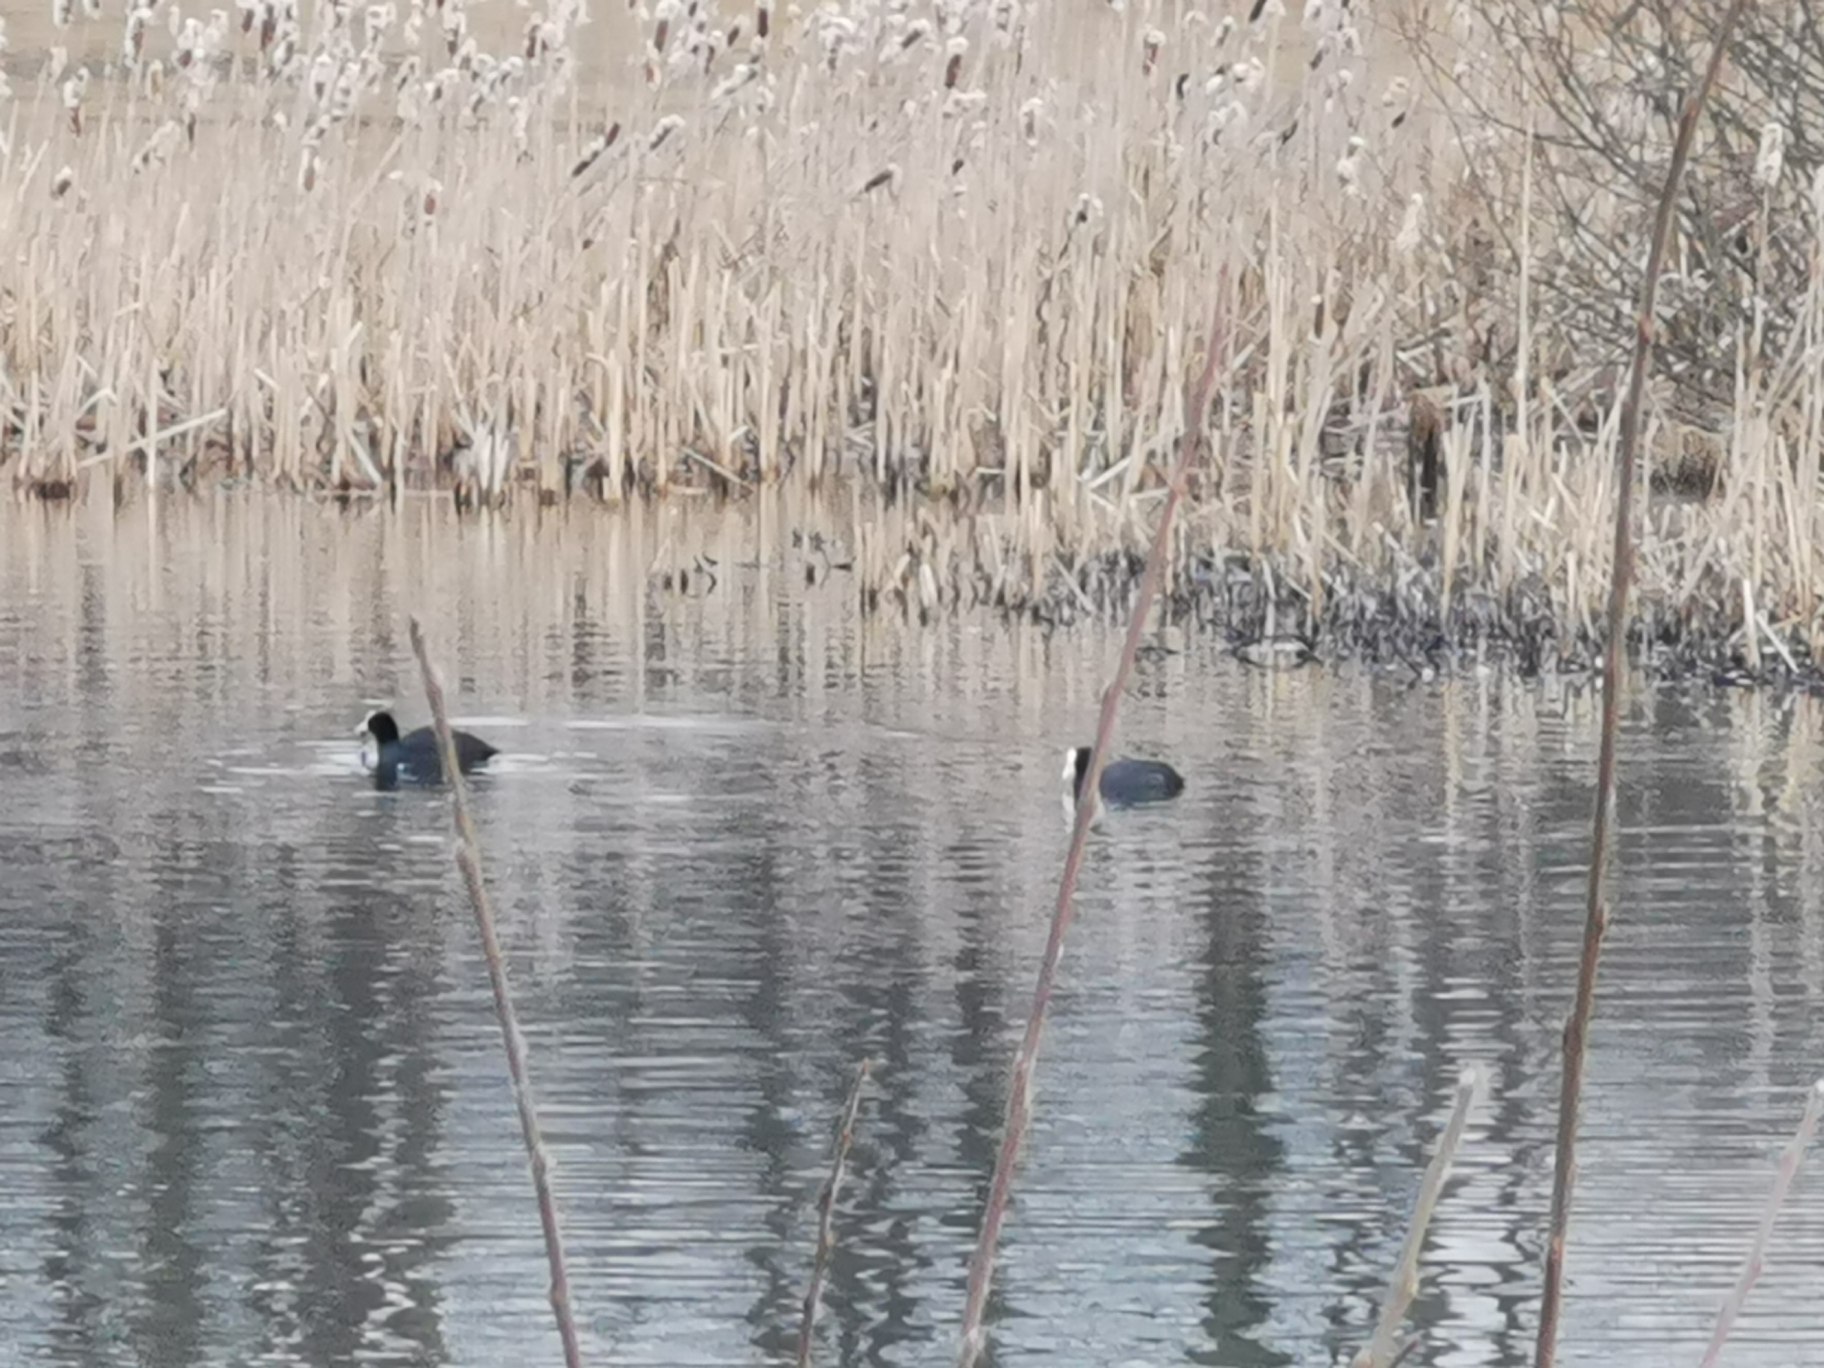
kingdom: Animalia
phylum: Chordata
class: Aves
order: Gruiformes
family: Rallidae
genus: Fulica
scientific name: Fulica atra
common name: Blishøne
